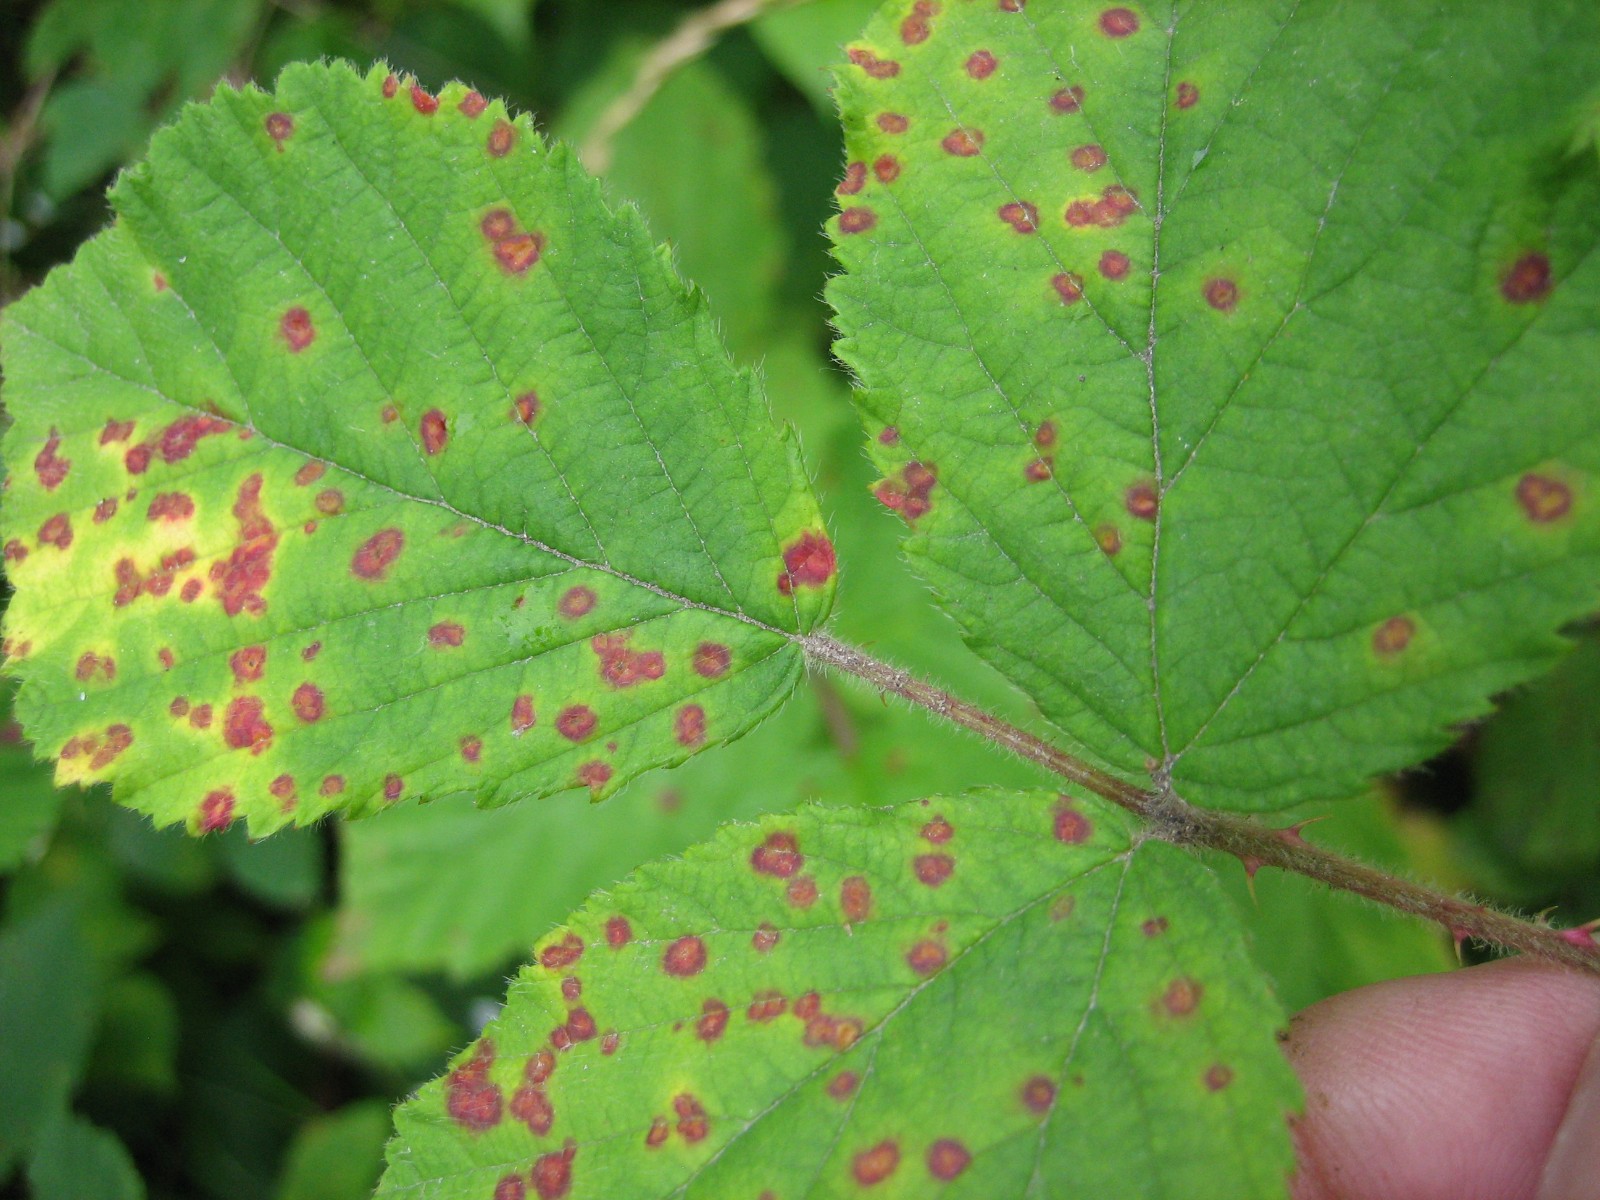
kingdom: Fungi
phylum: Basidiomycota
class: Pucciniomycetes
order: Pucciniales
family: Phragmidiaceae
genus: Phragmidium
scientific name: Phragmidium
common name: flercellerust
